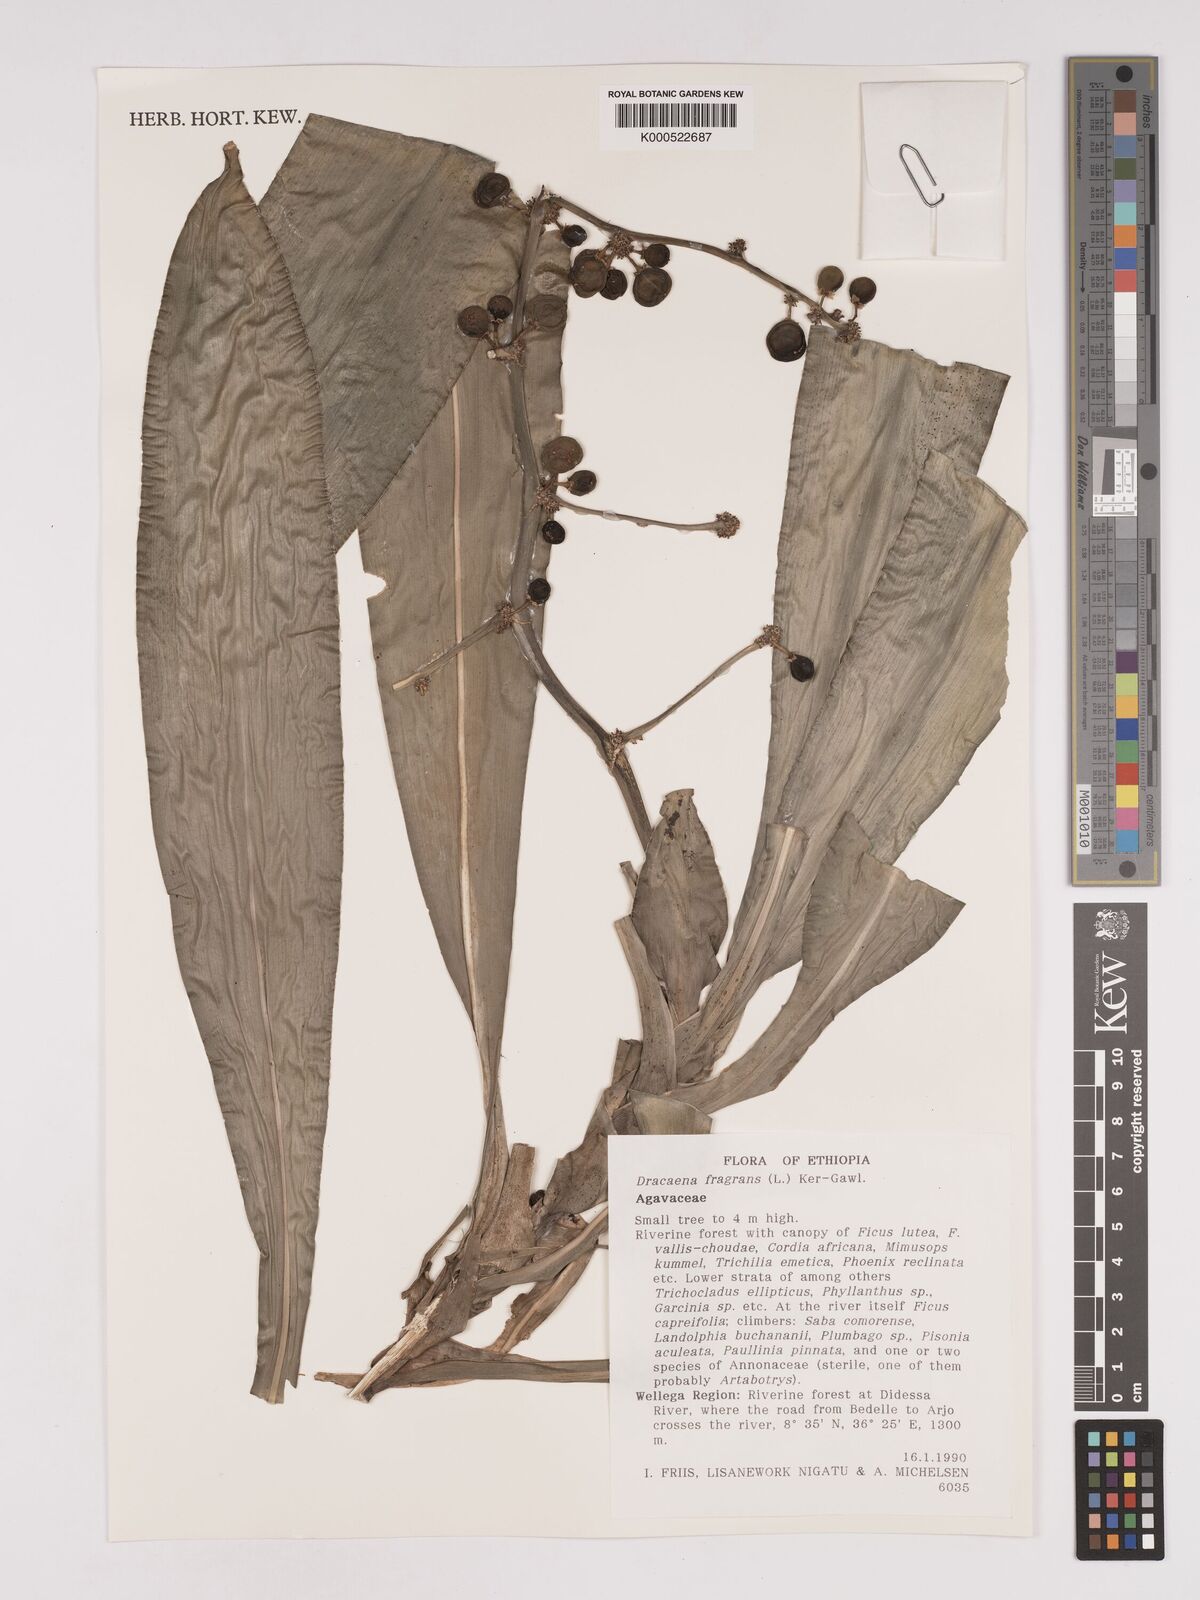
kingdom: Plantae
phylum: Tracheophyta
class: Liliopsida
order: Asparagales
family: Asparagaceae
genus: Dracaena
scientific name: Dracaena fragrans
